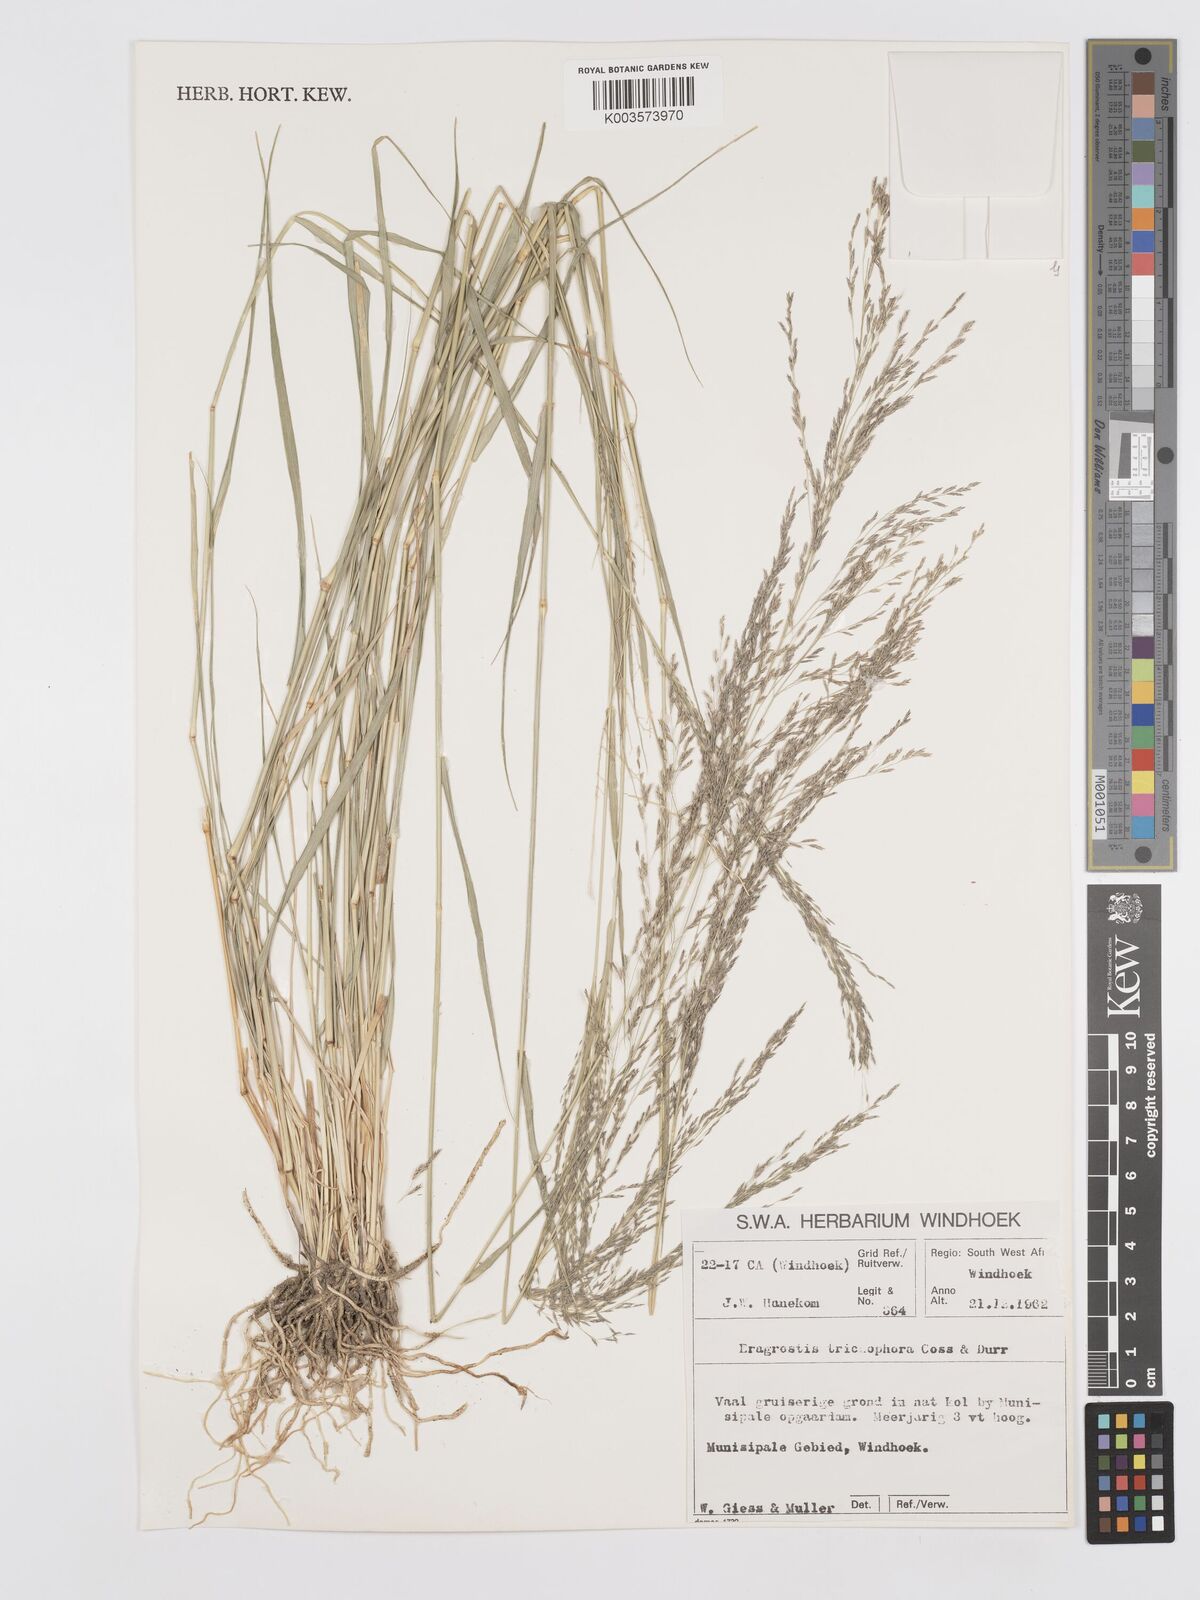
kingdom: Plantae
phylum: Tracheophyta
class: Liliopsida
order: Poales
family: Poaceae
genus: Eragrostis
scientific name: Eragrostis cylindriflora
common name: Cylinderflower lovegrass
